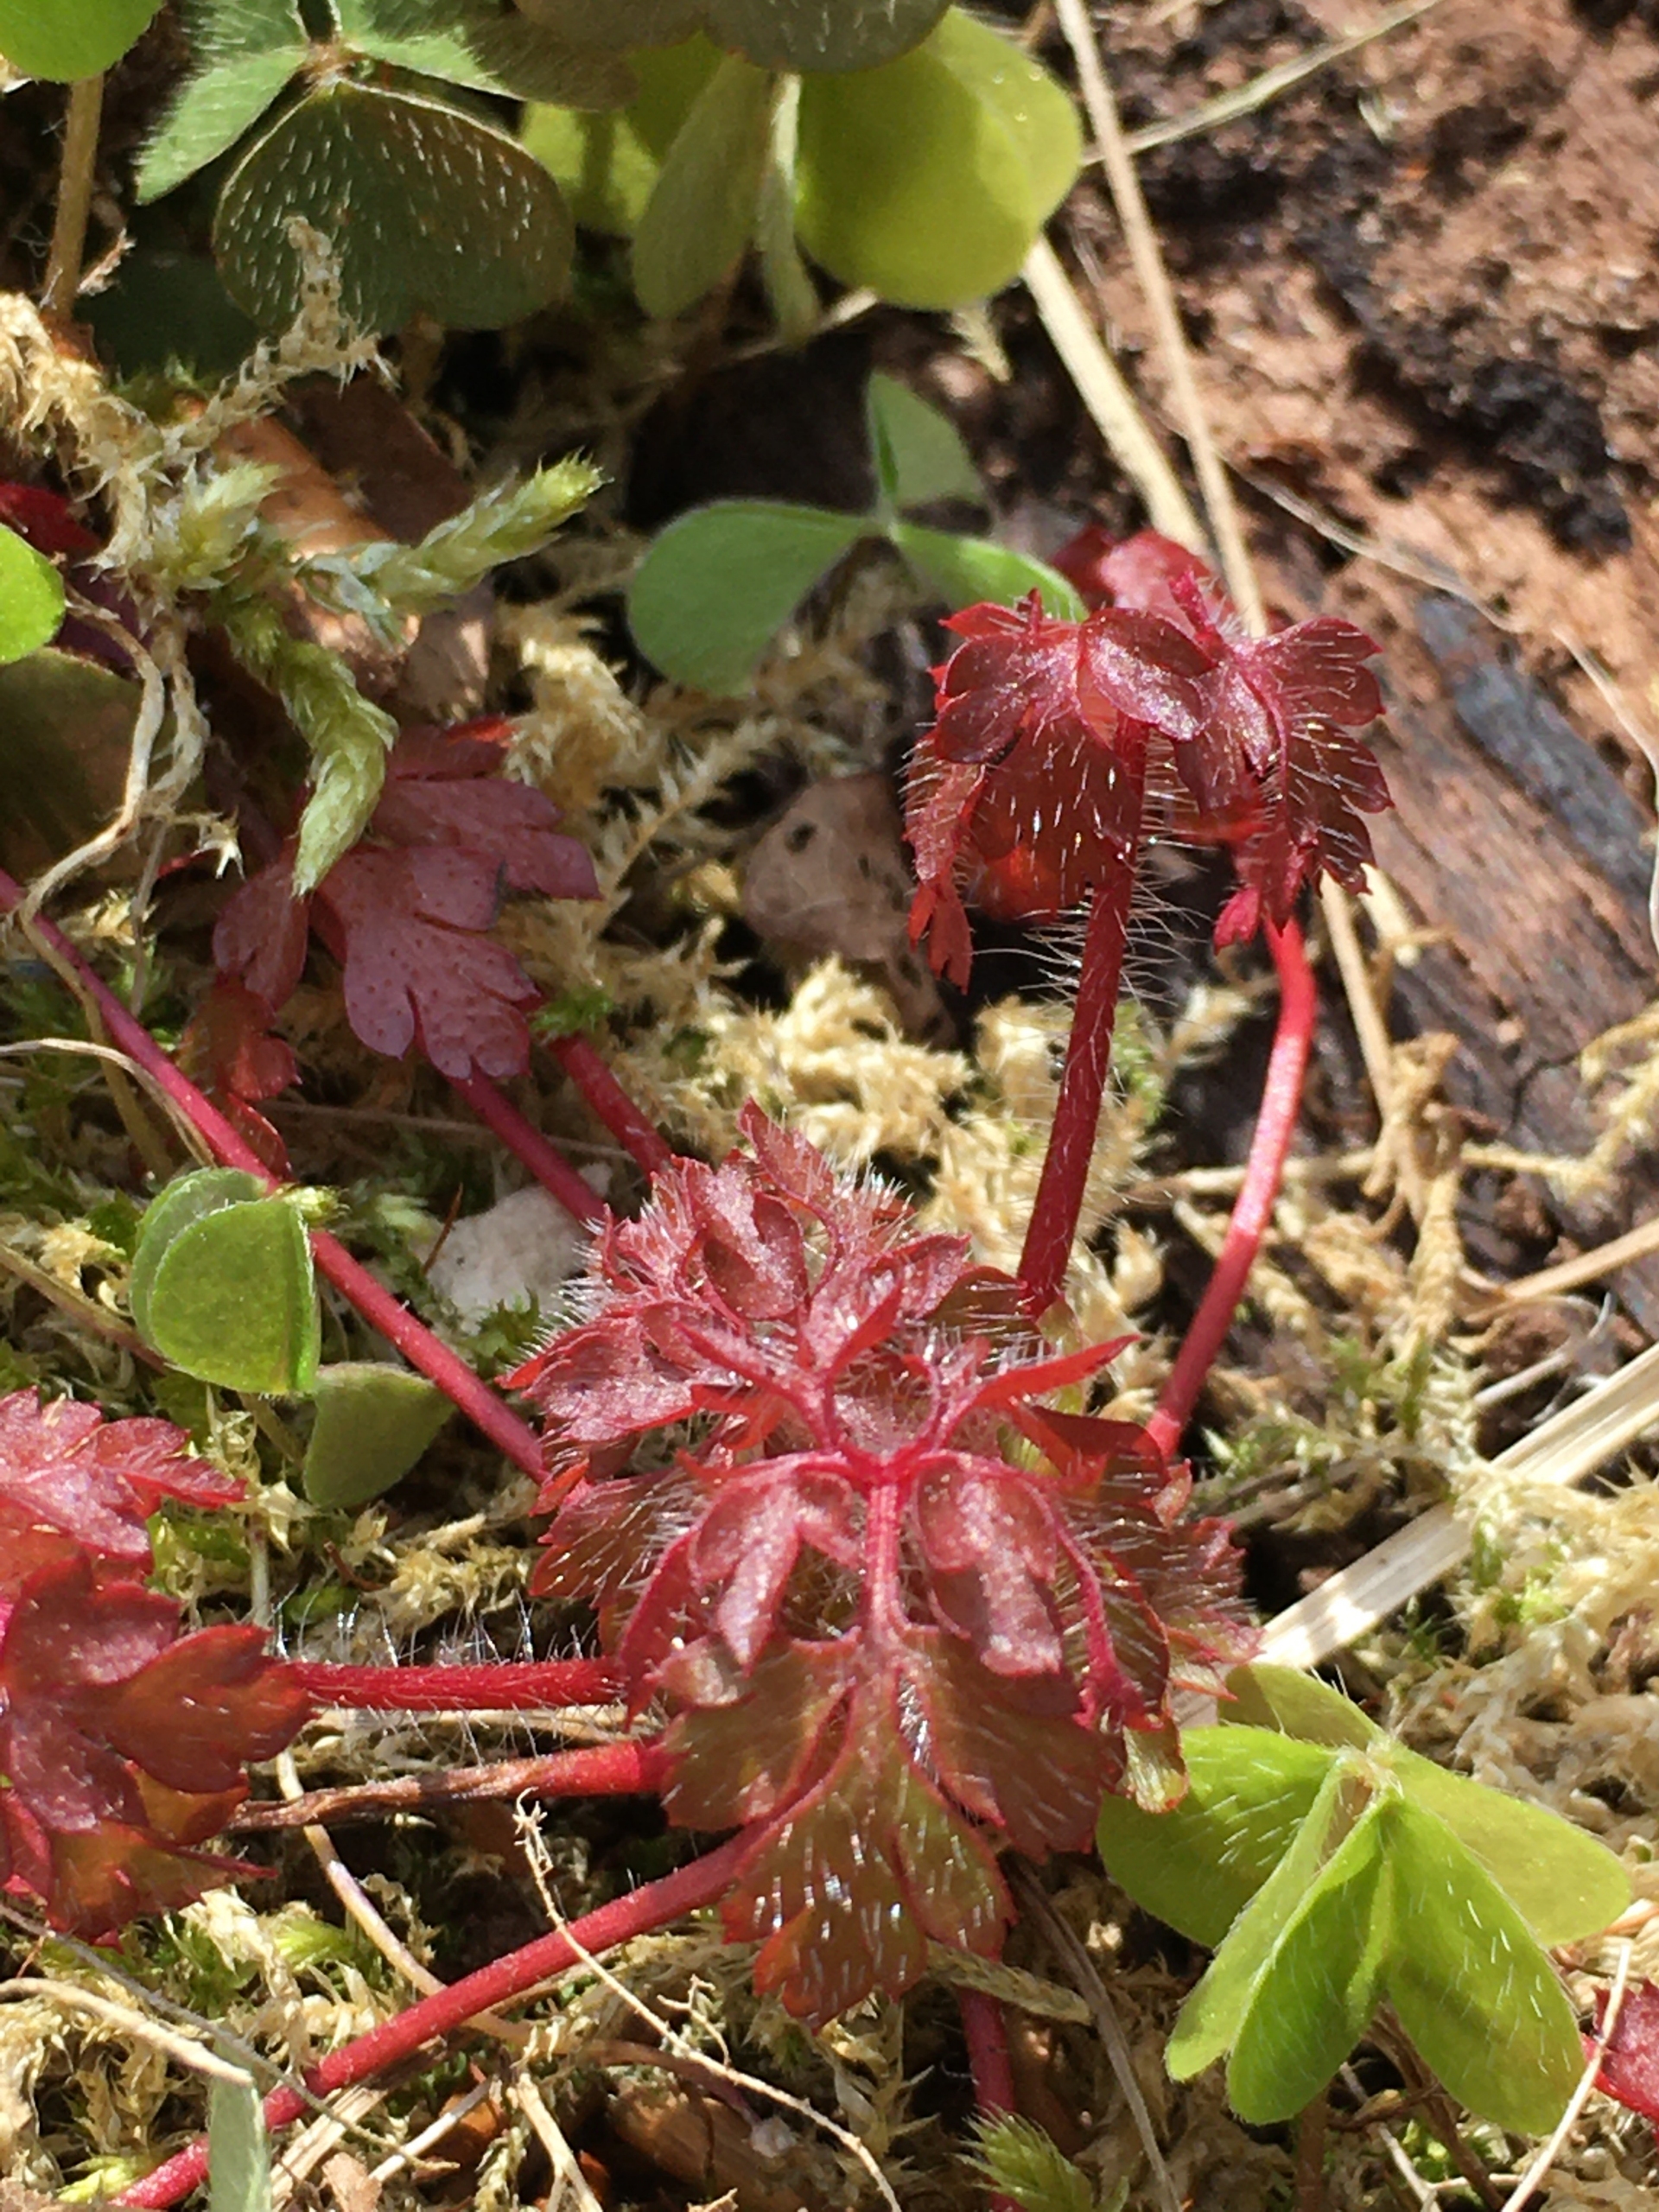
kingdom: Plantae
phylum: Tracheophyta
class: Magnoliopsida
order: Geraniales
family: Geraniaceae
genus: Geranium
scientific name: Geranium robertianum
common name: Stinkende storkenæb
